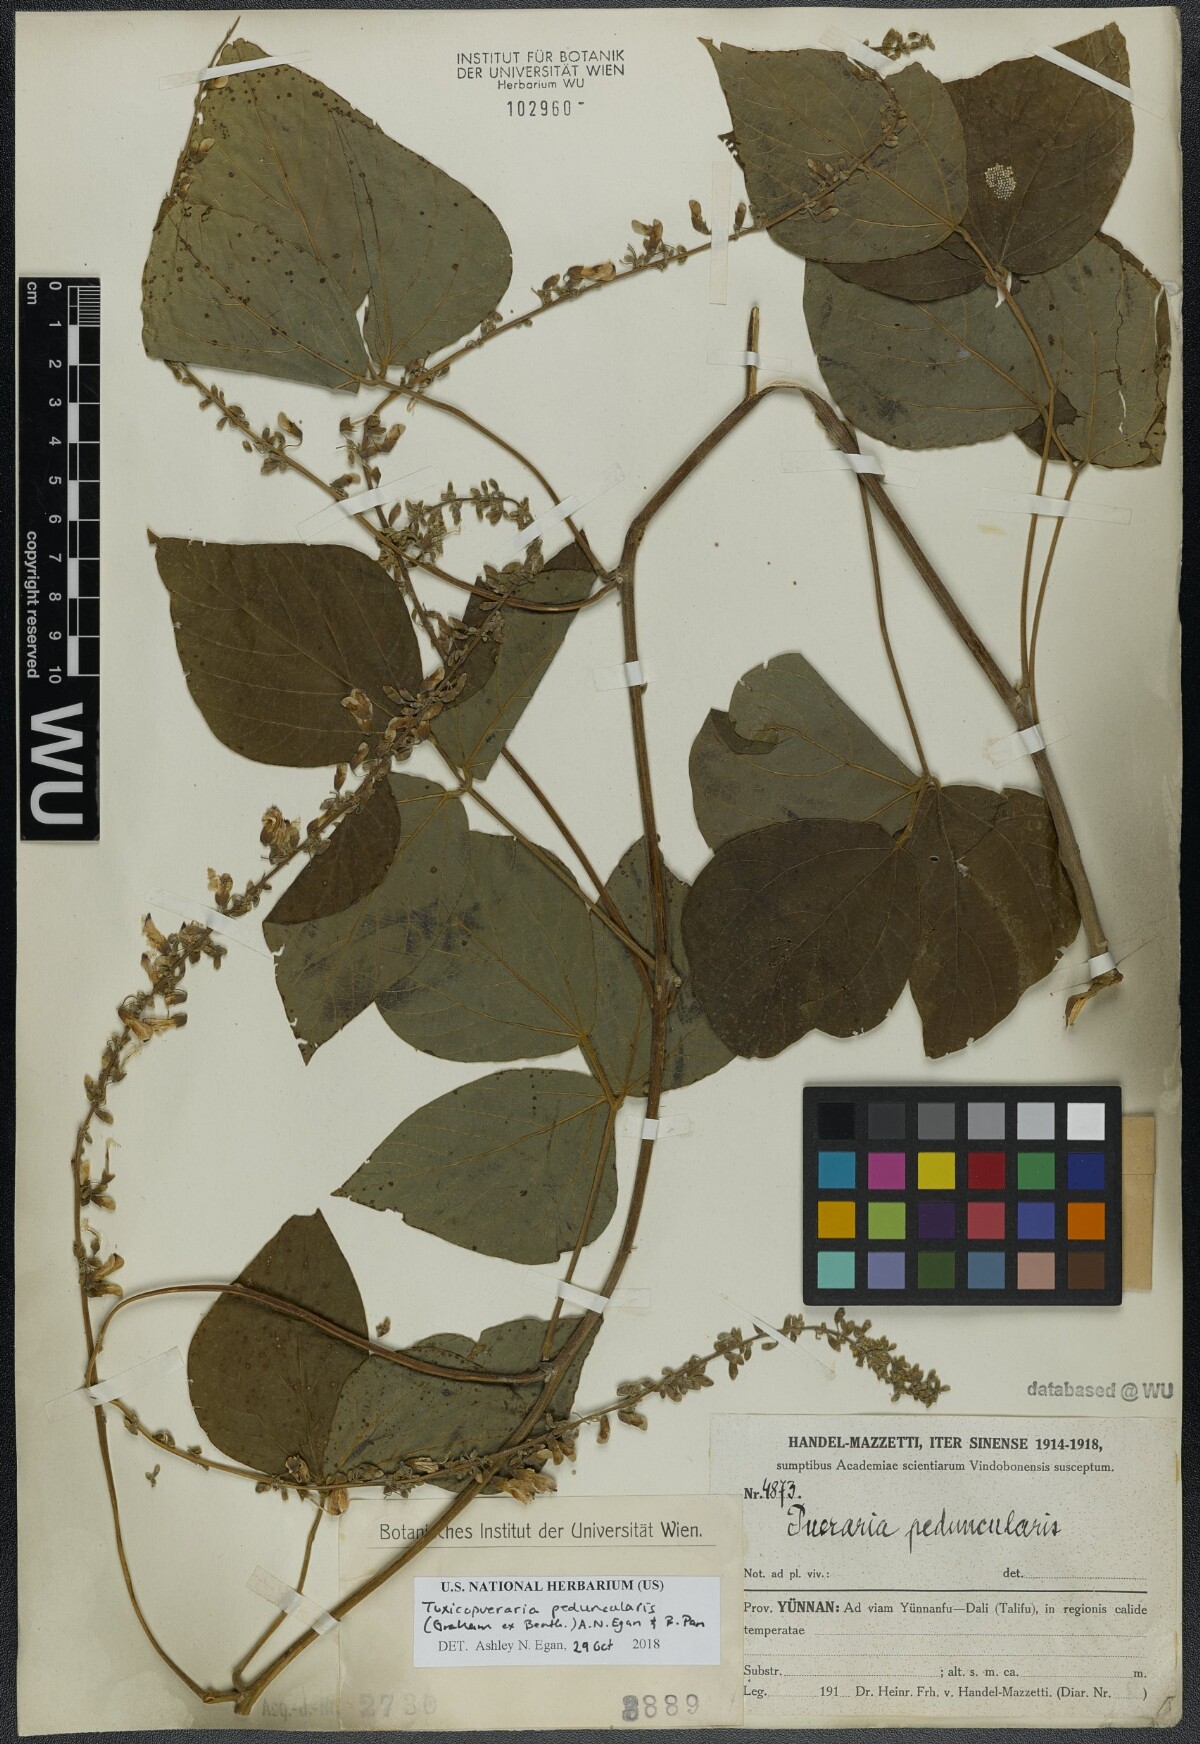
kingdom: Plantae
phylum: Tracheophyta
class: Magnoliopsida
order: Fabales
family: Fabaceae
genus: Toxicopueraria
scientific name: Toxicopueraria peduncularis
